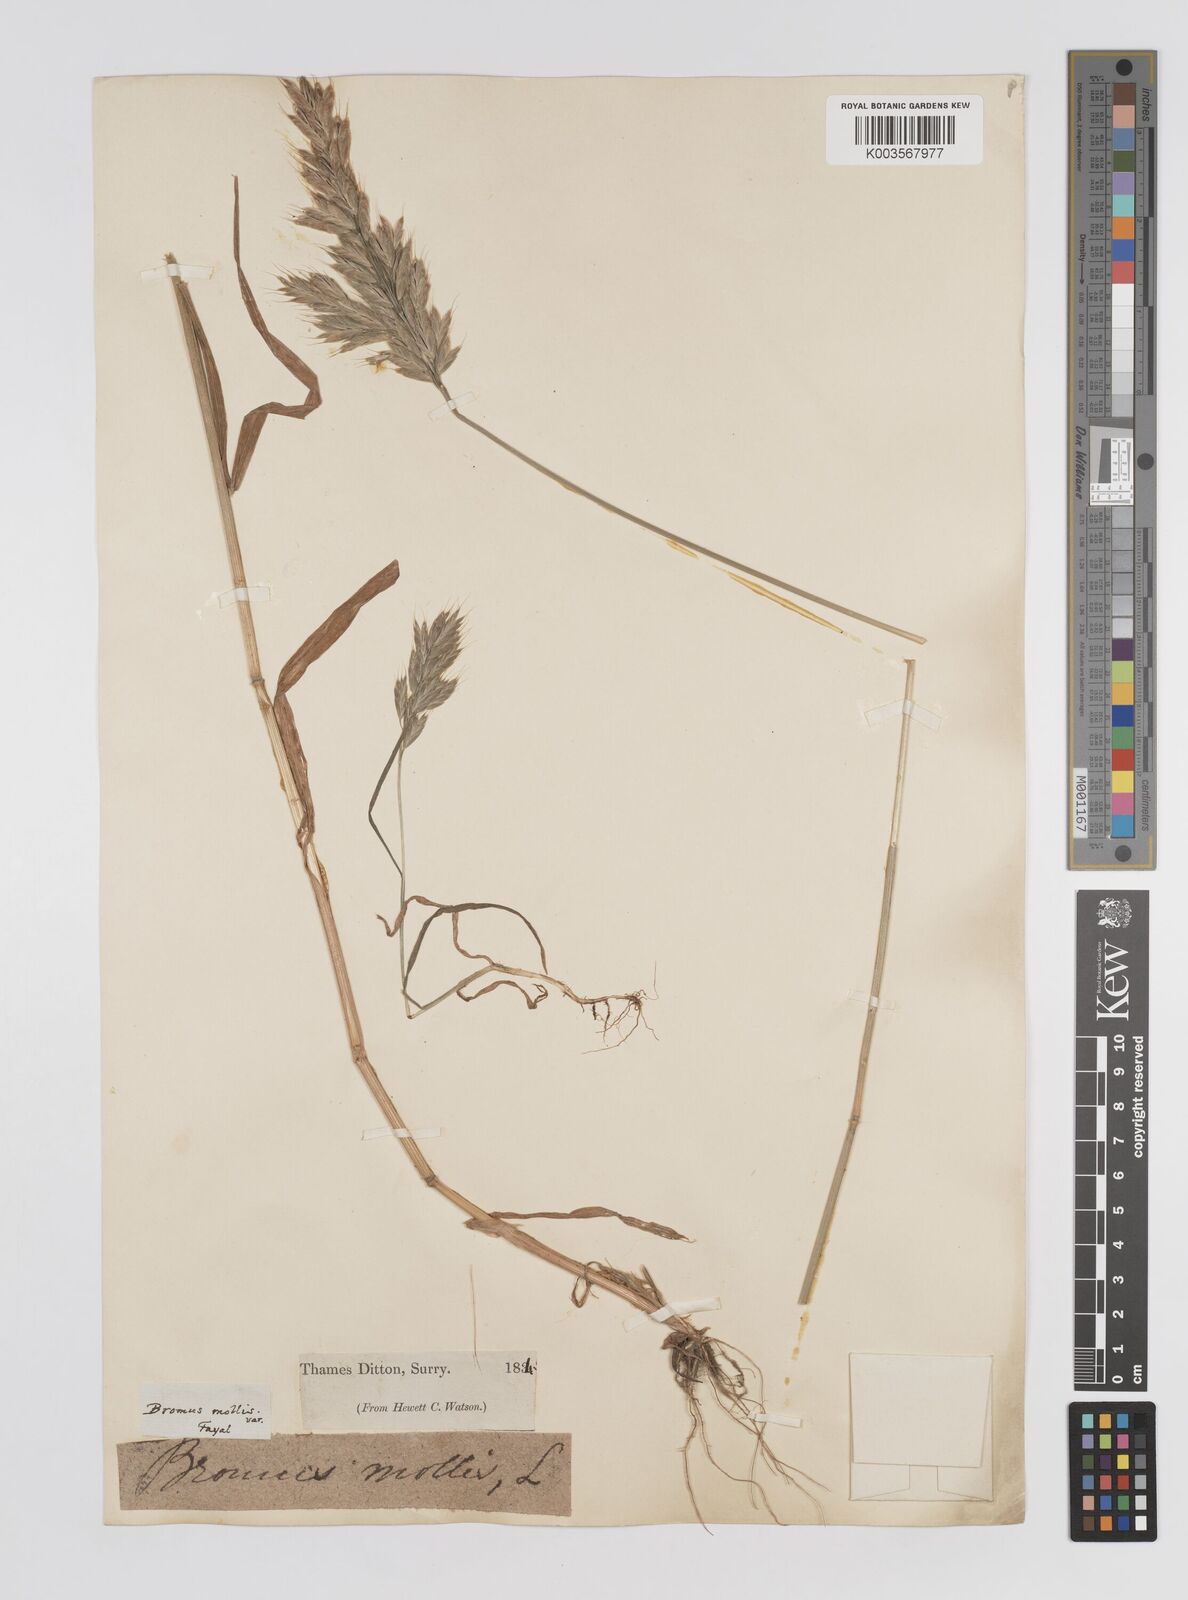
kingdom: Plantae
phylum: Tracheophyta
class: Liliopsida
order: Poales
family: Poaceae
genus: Bromus
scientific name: Bromus
